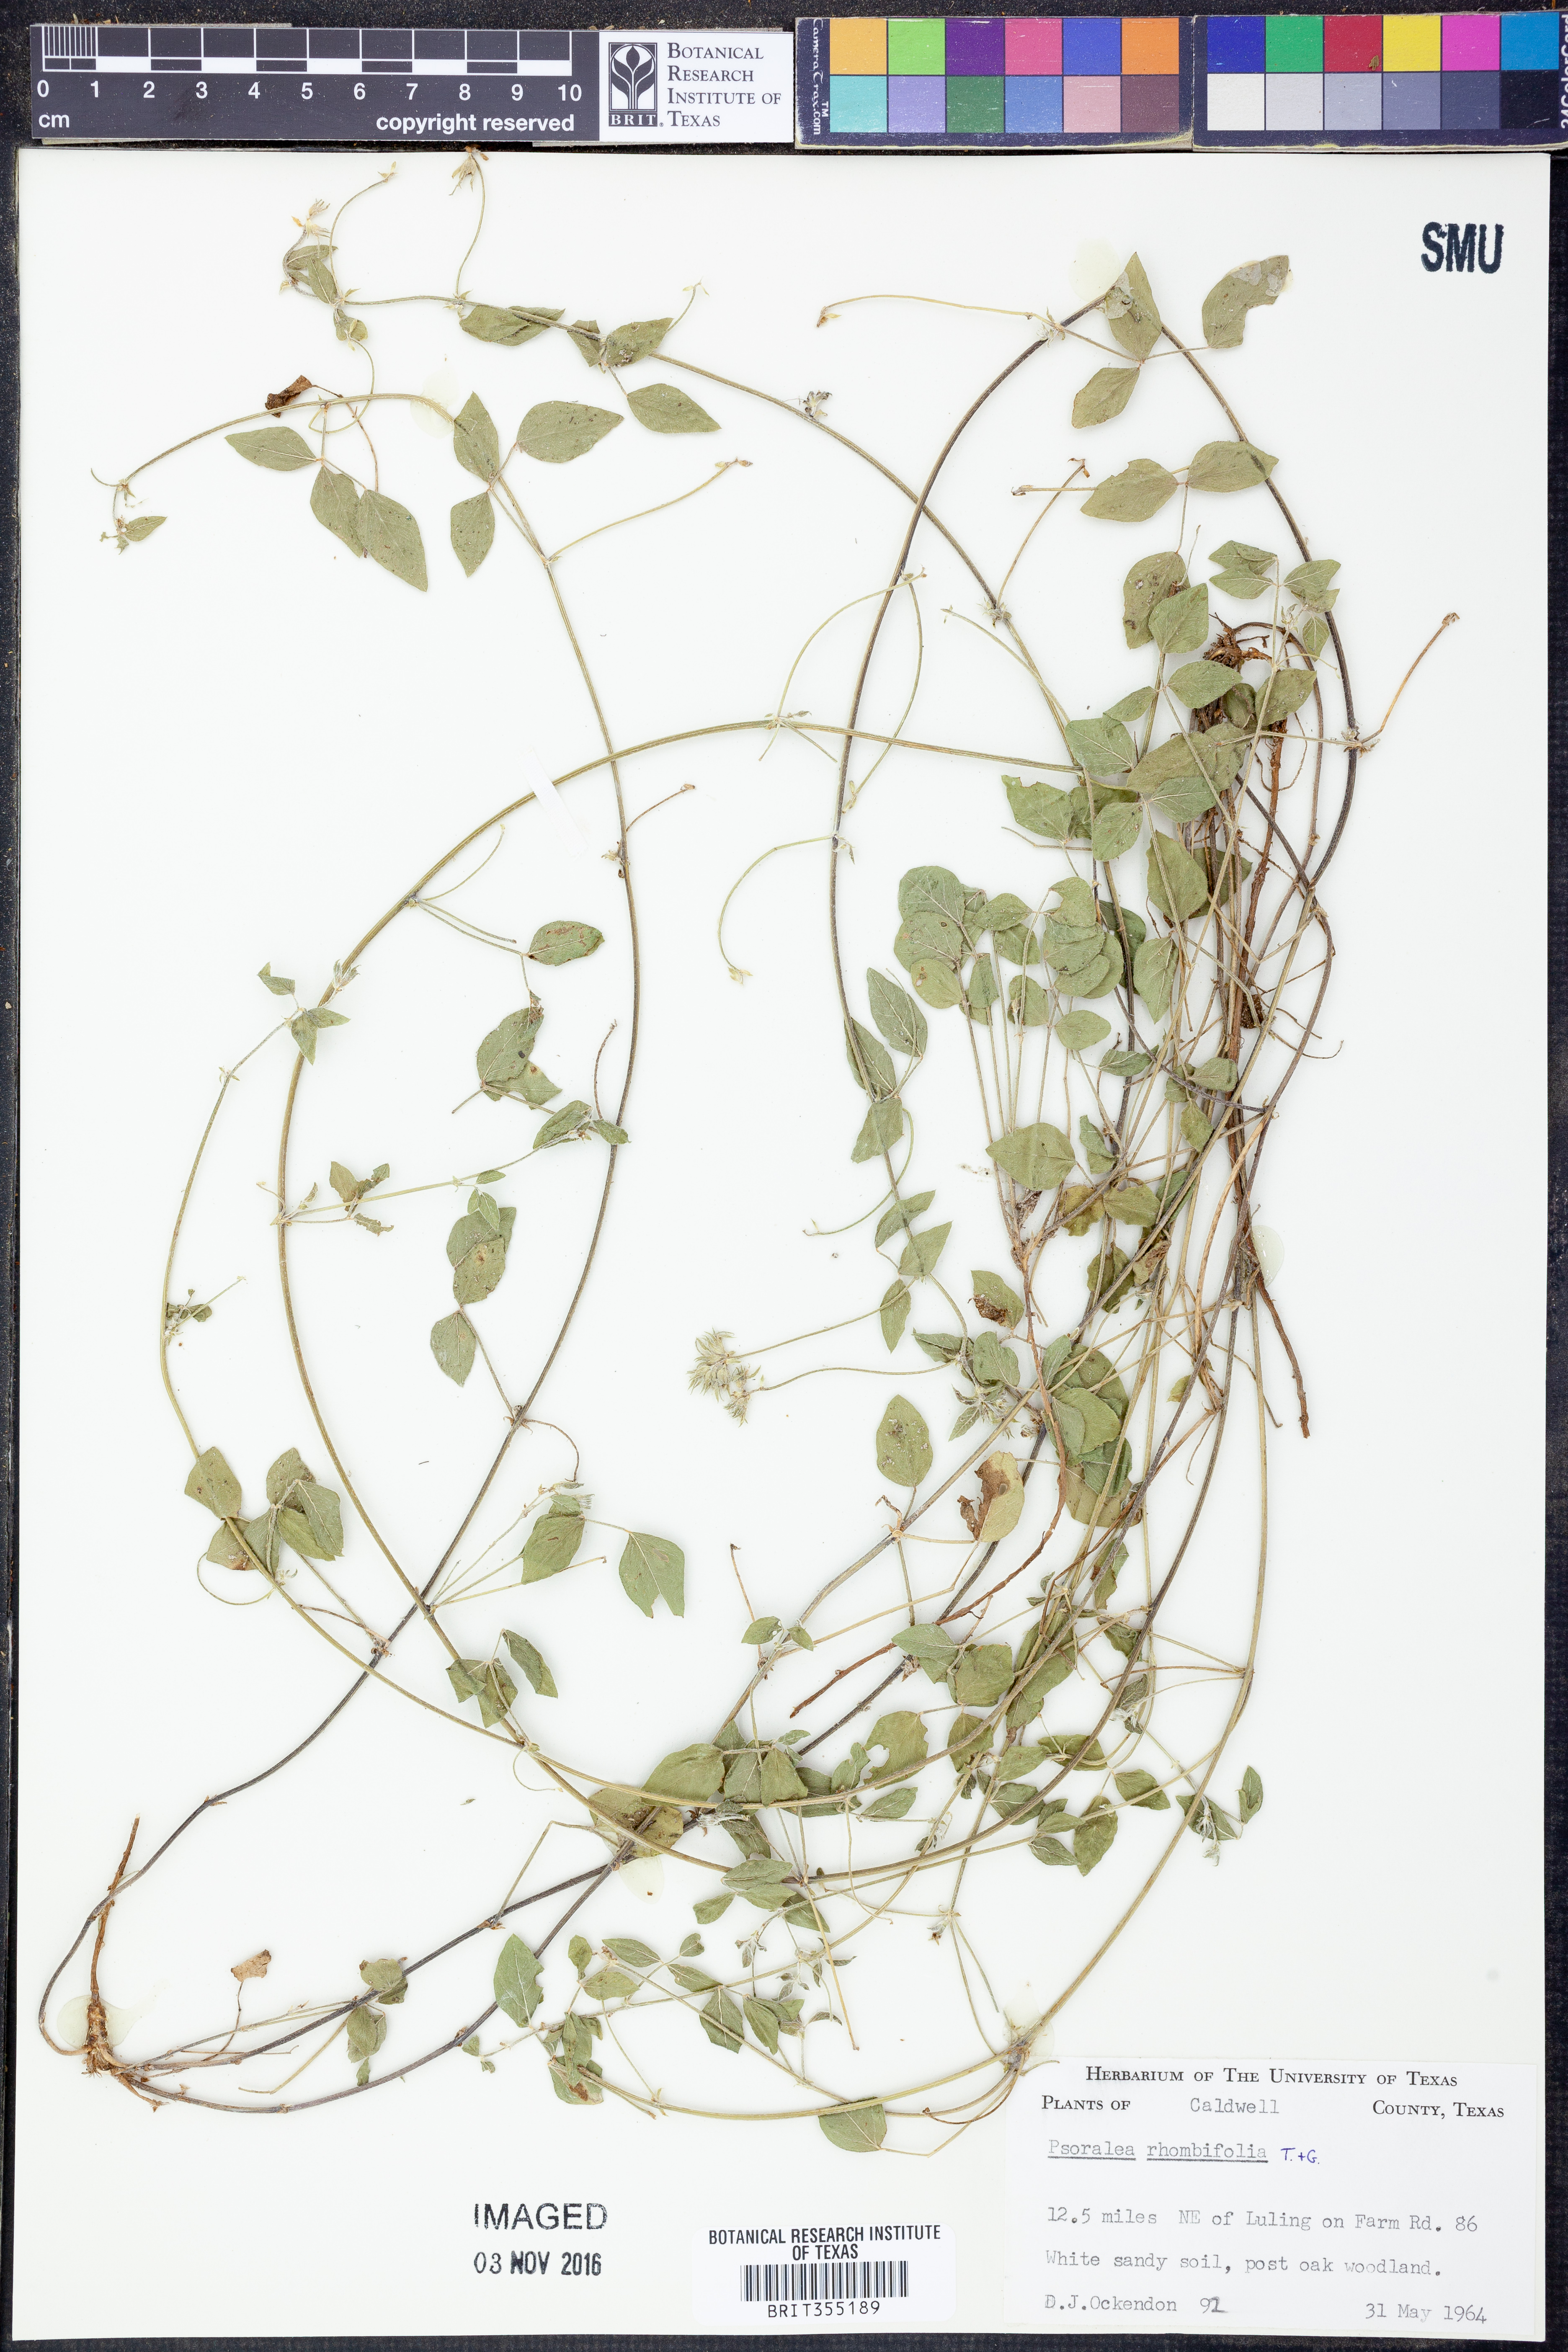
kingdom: Plantae
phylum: Tracheophyta
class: Magnoliopsida
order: Fabales
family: Fabaceae
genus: Pediomelum
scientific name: Pediomelum rhombifolium
